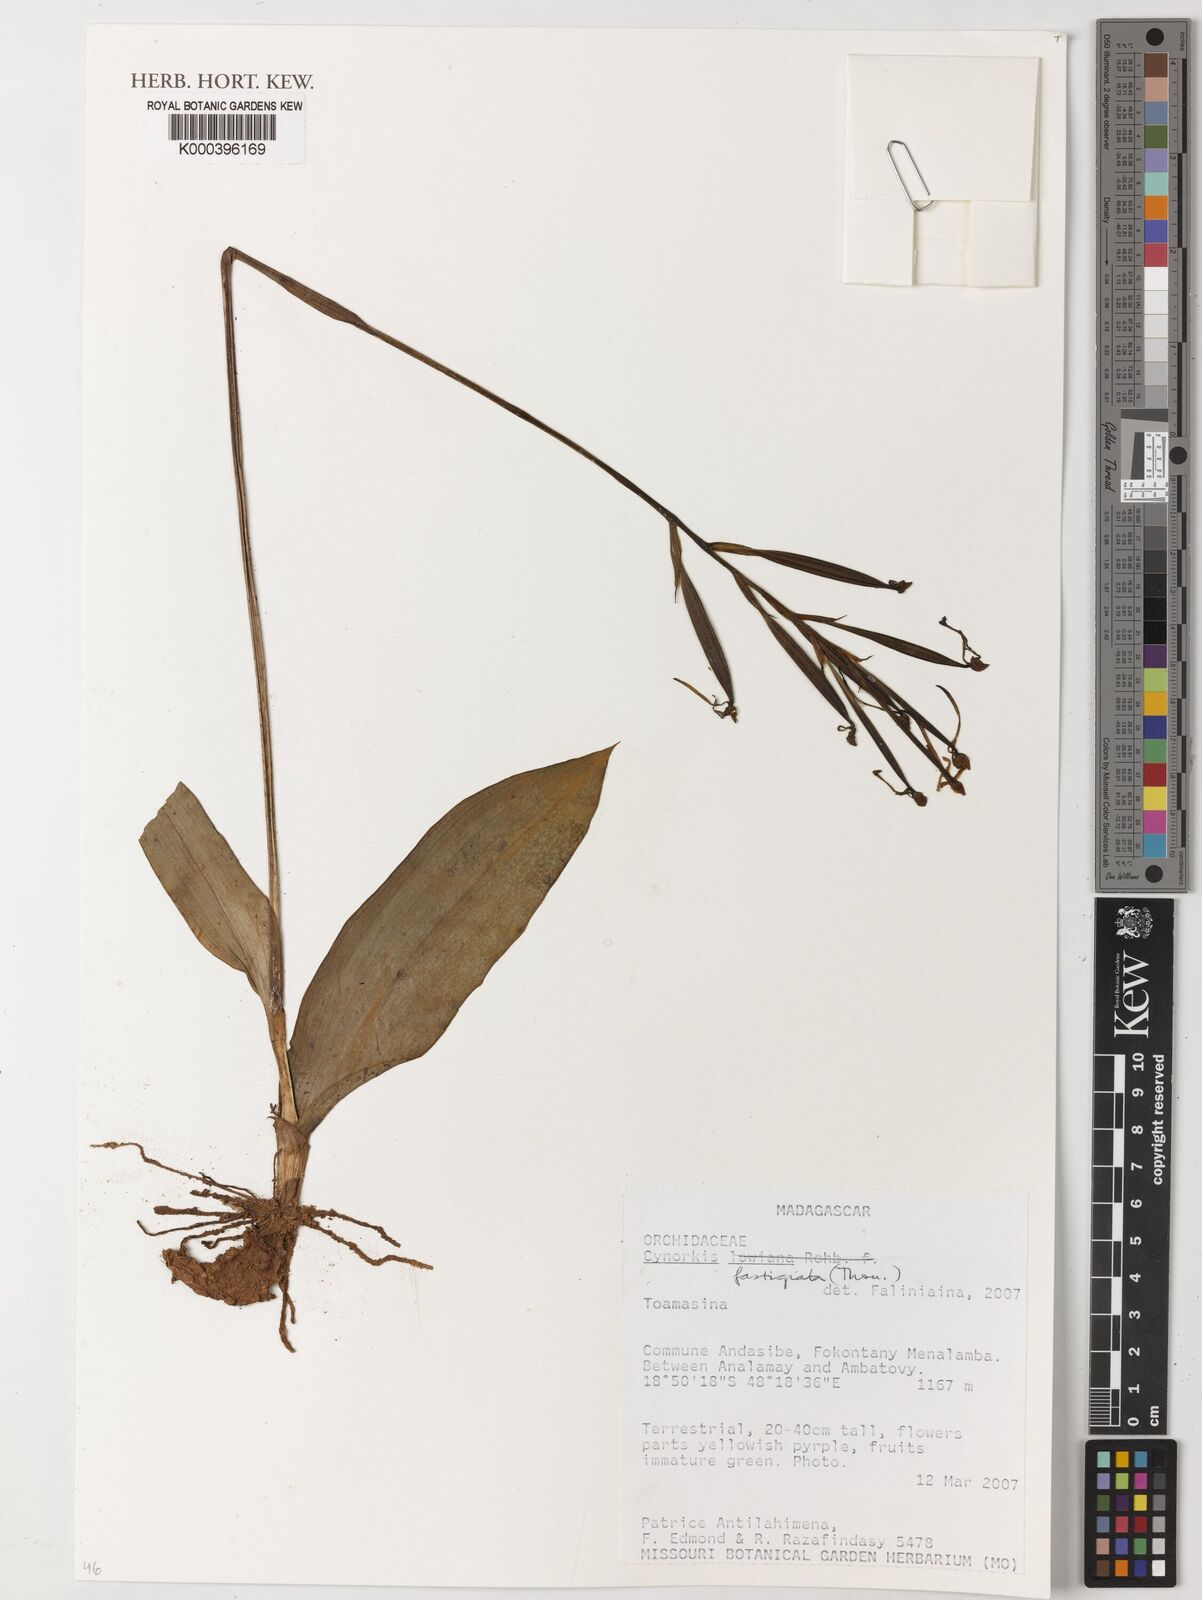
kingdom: Plantae
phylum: Tracheophyta
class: Liliopsida
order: Asparagales
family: Orchidaceae
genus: Cynorkis
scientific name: Cynorkis fastigiata
